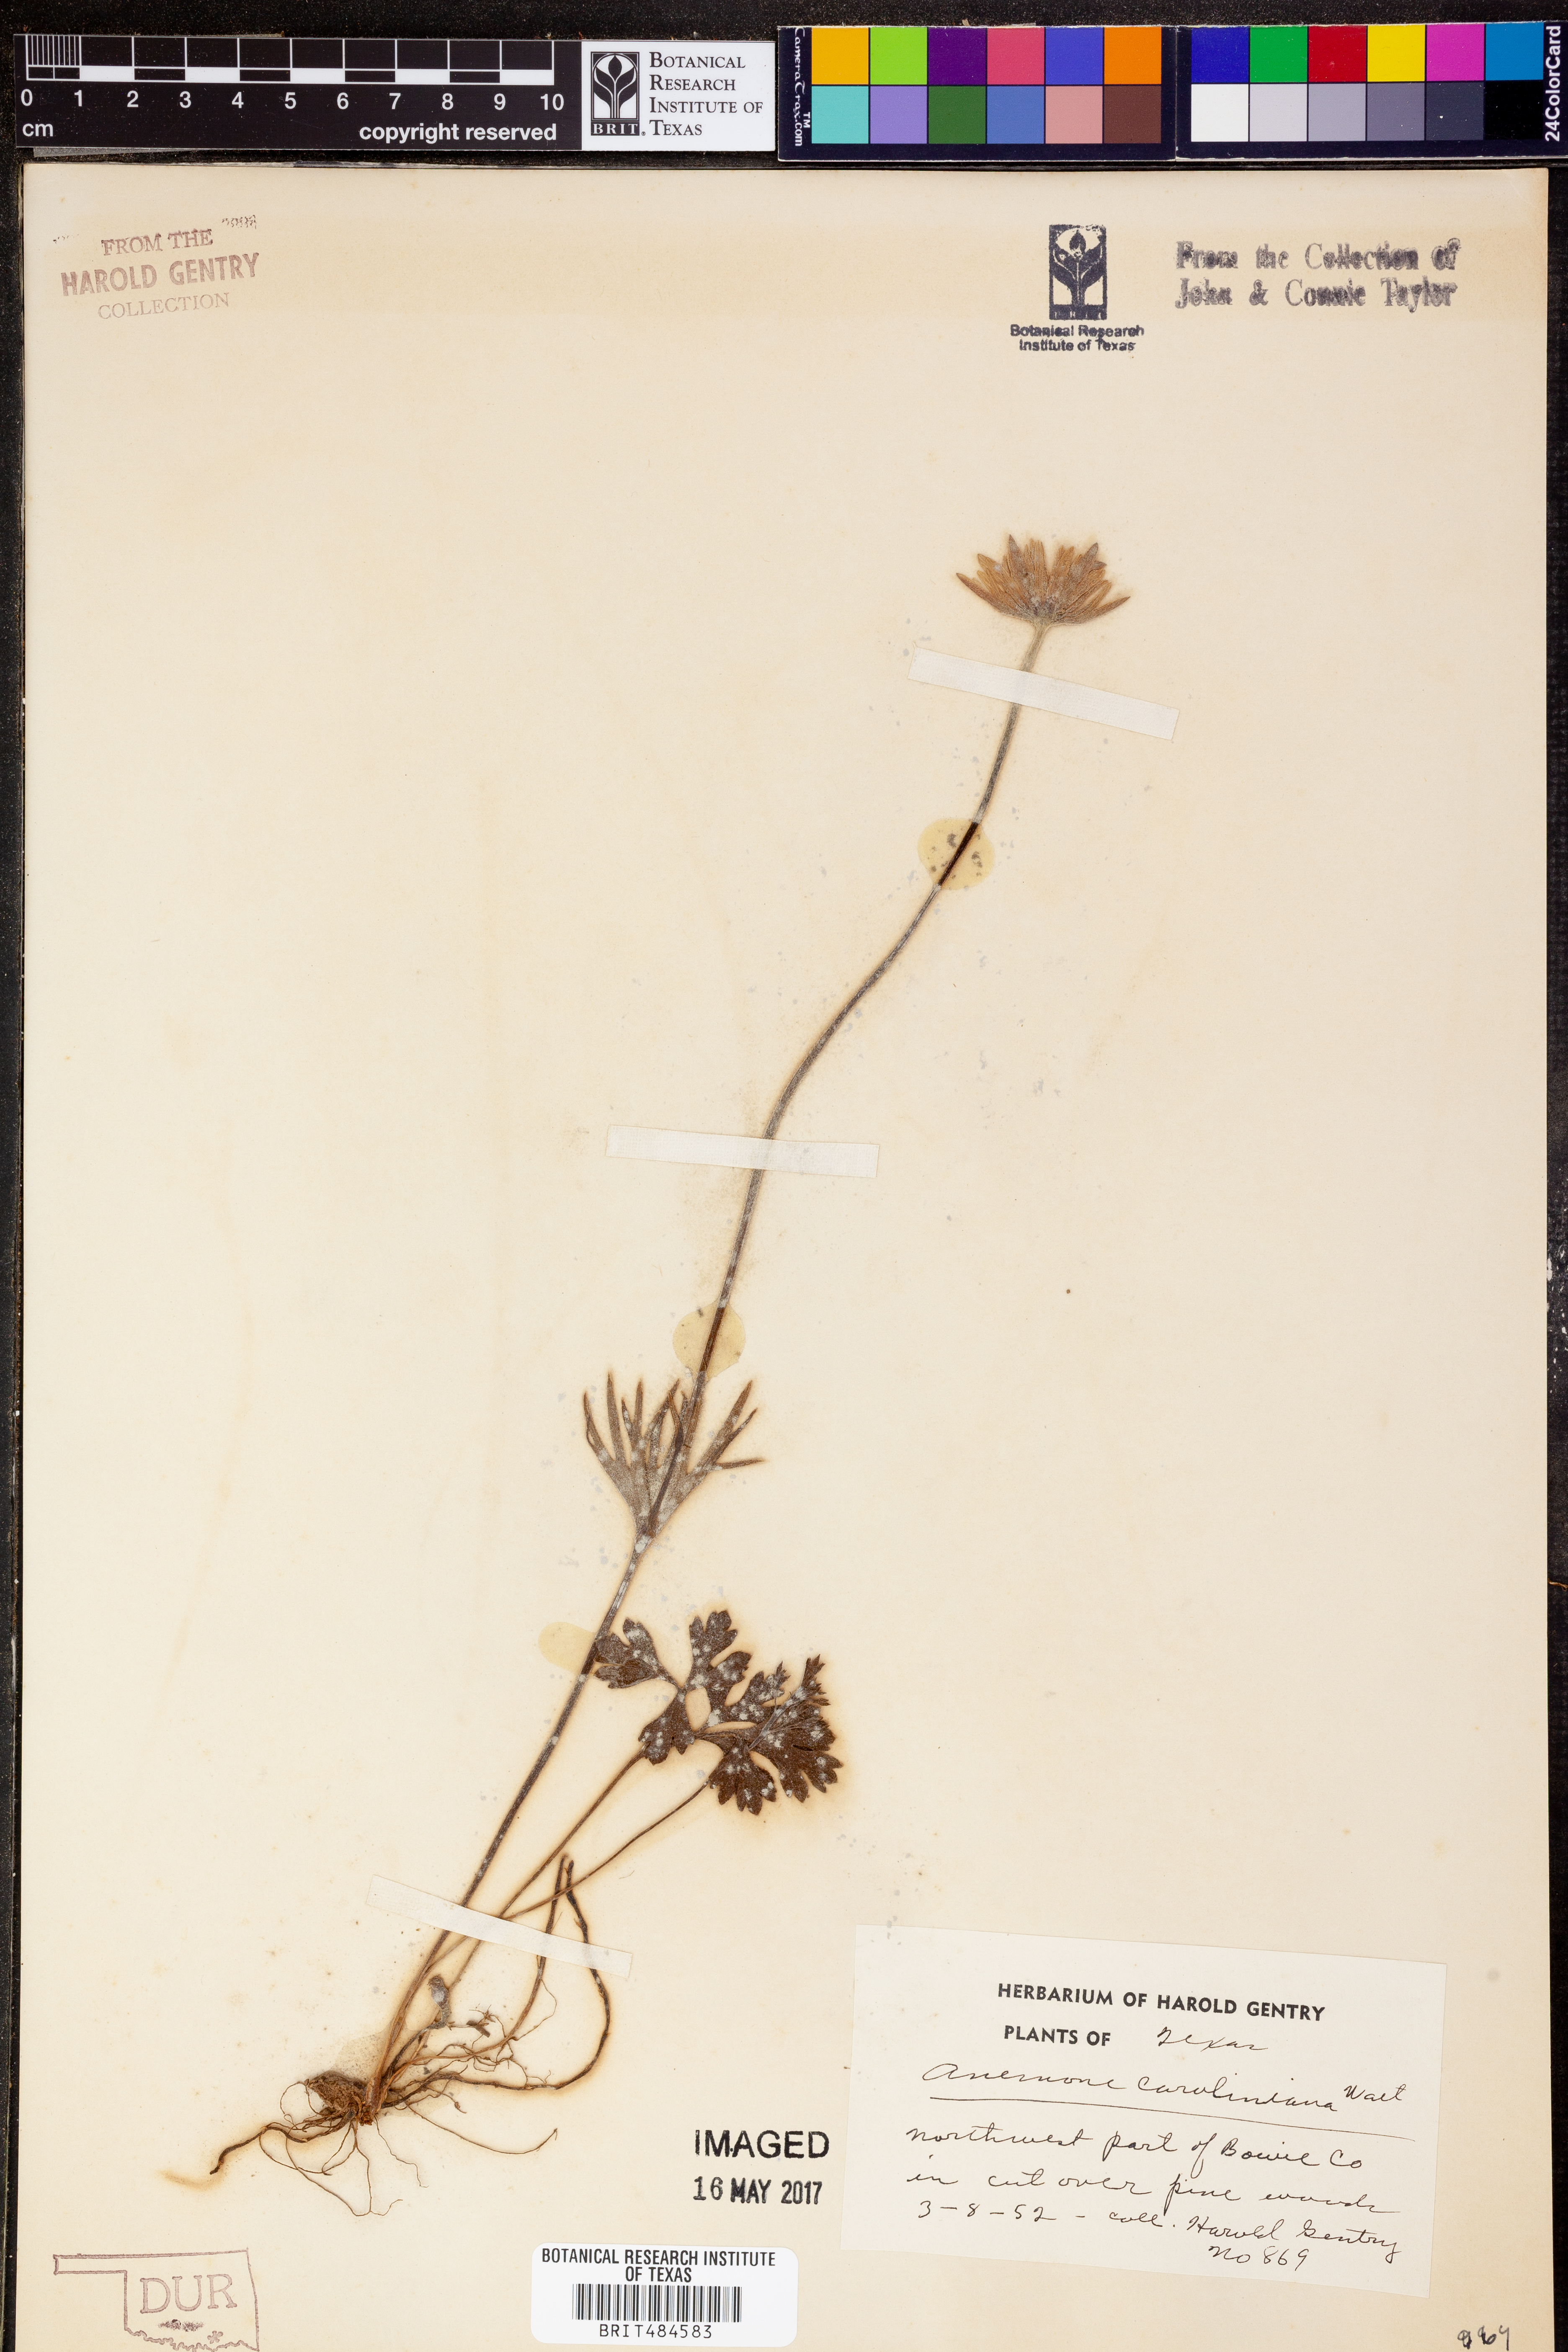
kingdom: Plantae
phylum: Tracheophyta
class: Magnoliopsida
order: Ranunculales
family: Ranunculaceae
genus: Anemone
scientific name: Anemone caroliniana
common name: Carolina anemone
